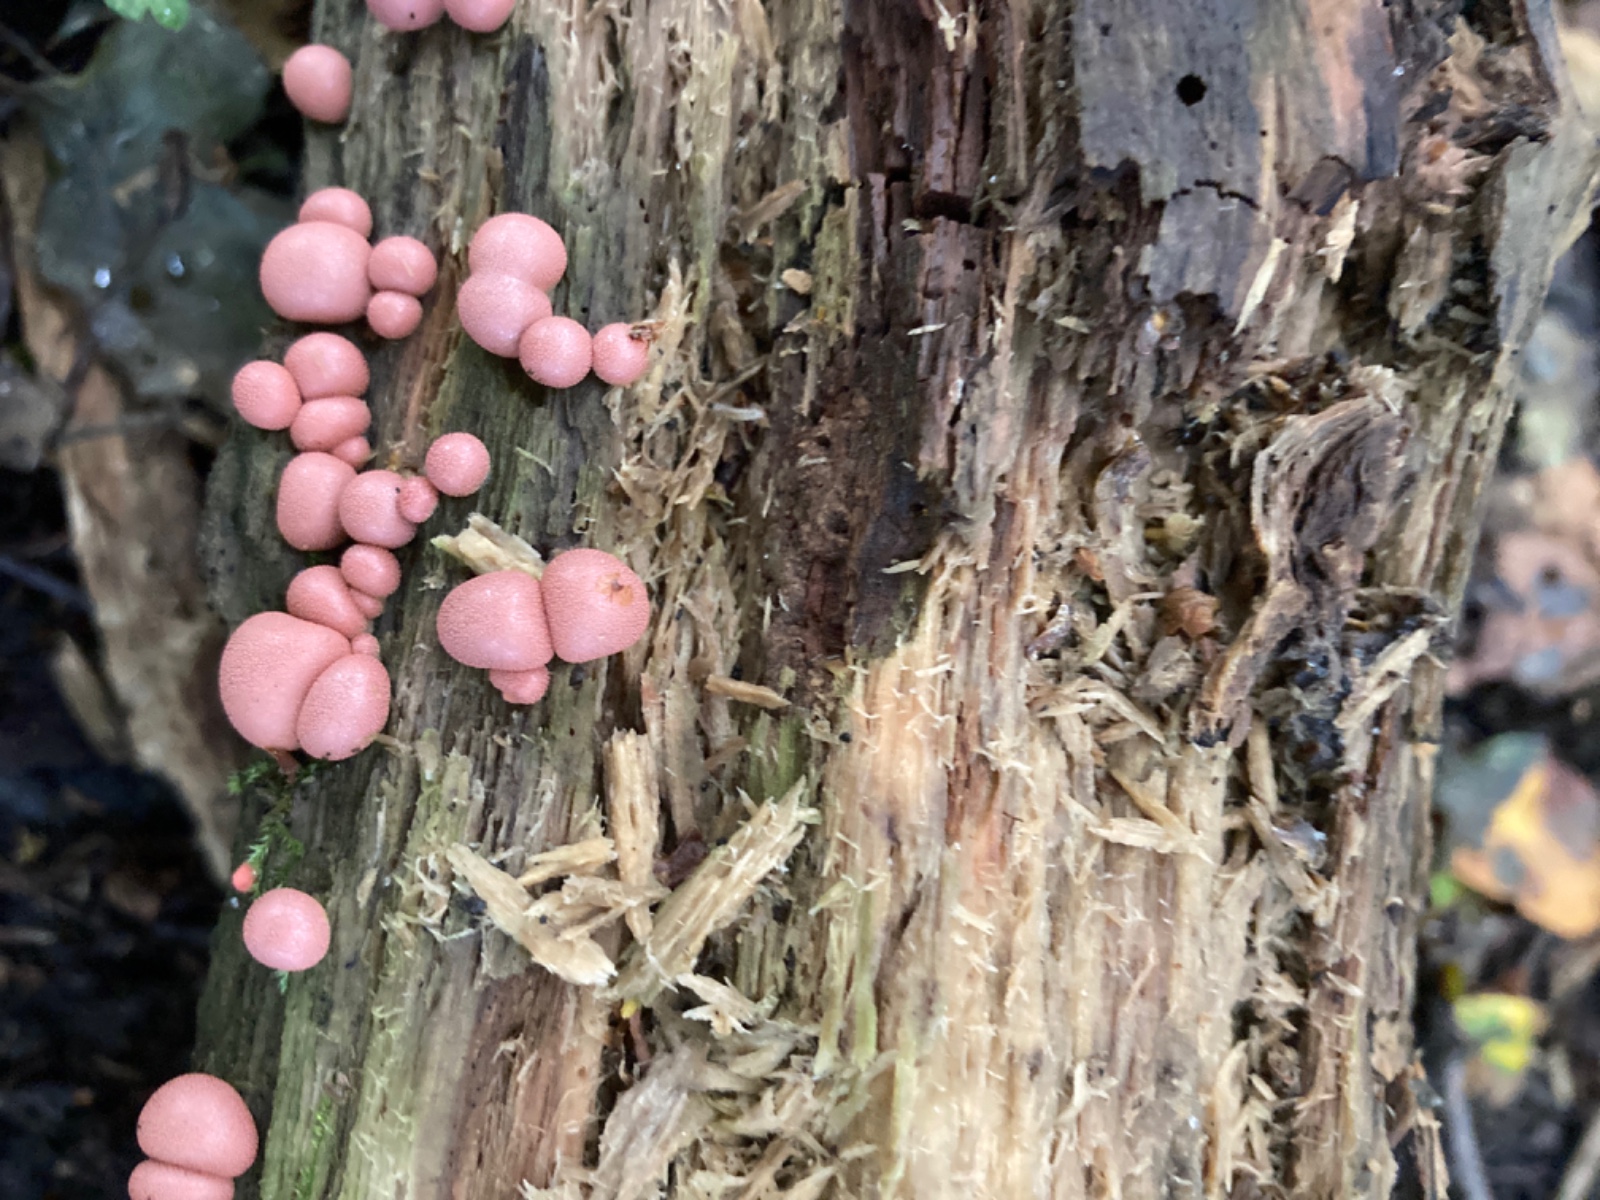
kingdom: Protozoa
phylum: Mycetozoa
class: Myxomycetes
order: Cribrariales
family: Tubiferaceae
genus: Lycogala
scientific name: Lycogala epidendrum
